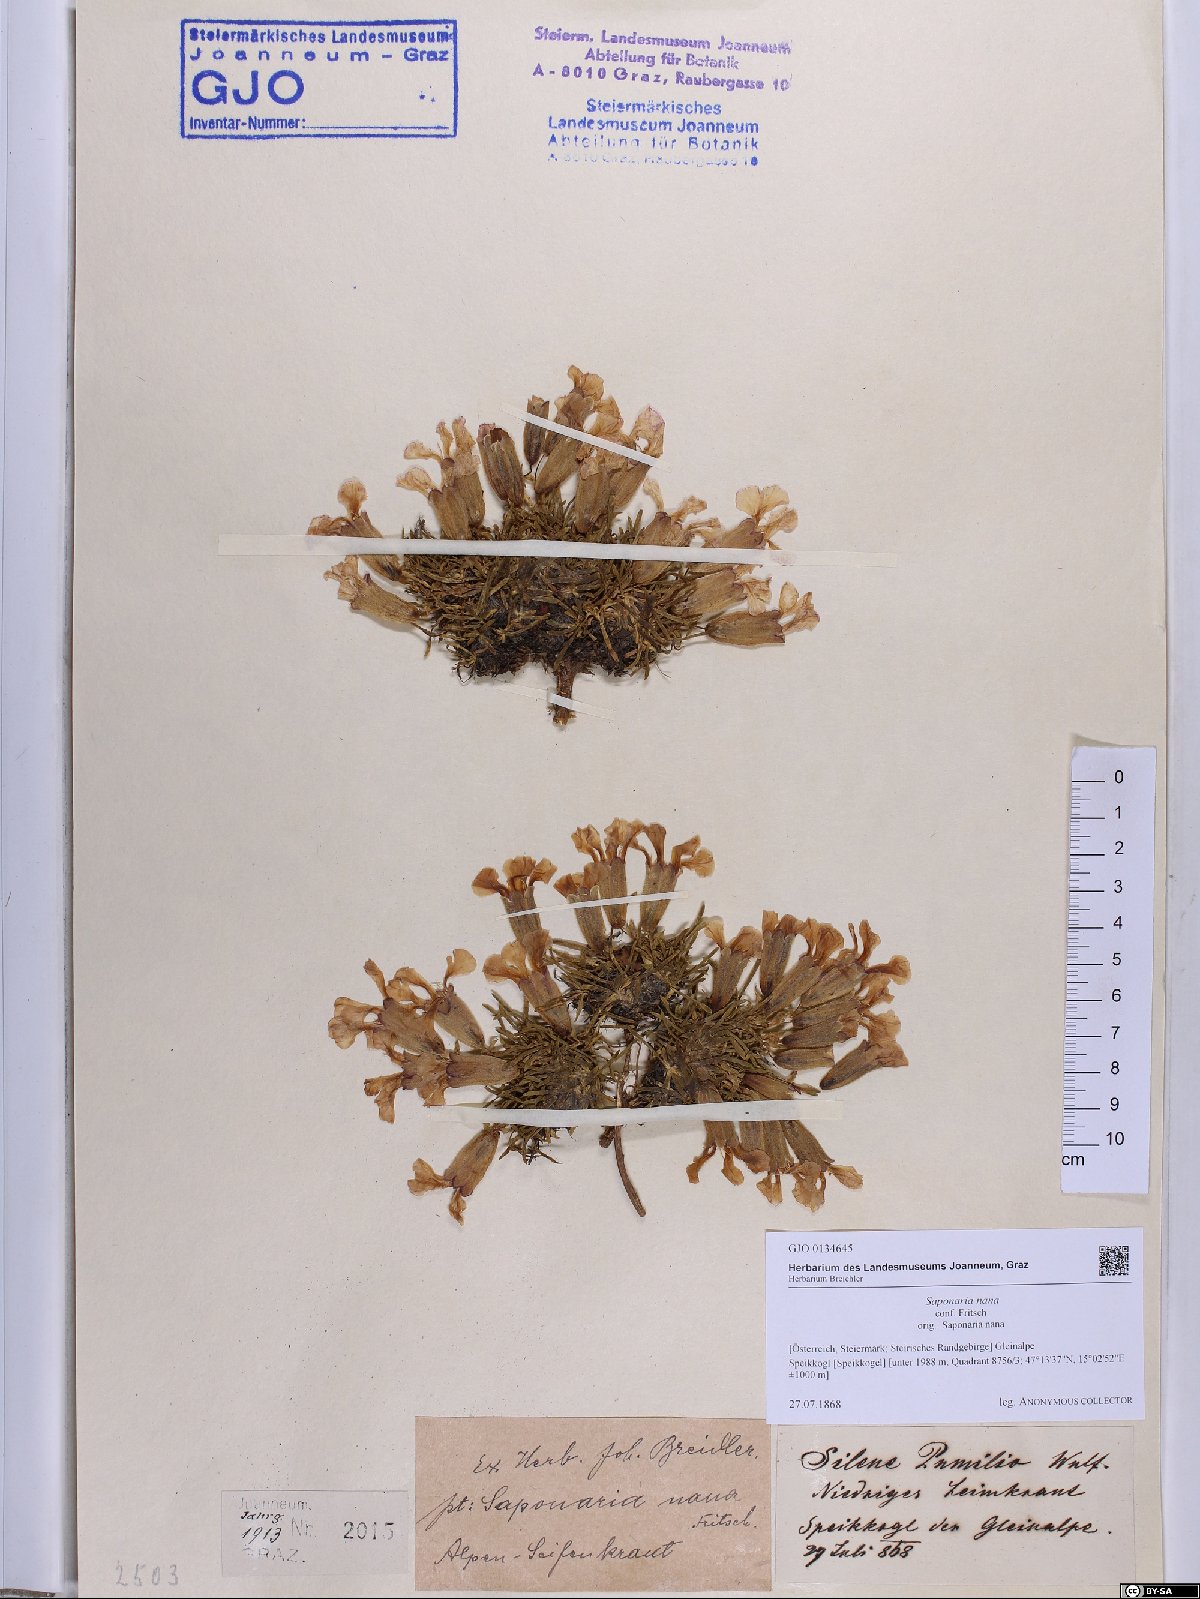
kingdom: Plantae
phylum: Tracheophyta
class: Magnoliopsida
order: Caryophyllales
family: Caryophyllaceae
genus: Saponaria
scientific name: Saponaria pumila
